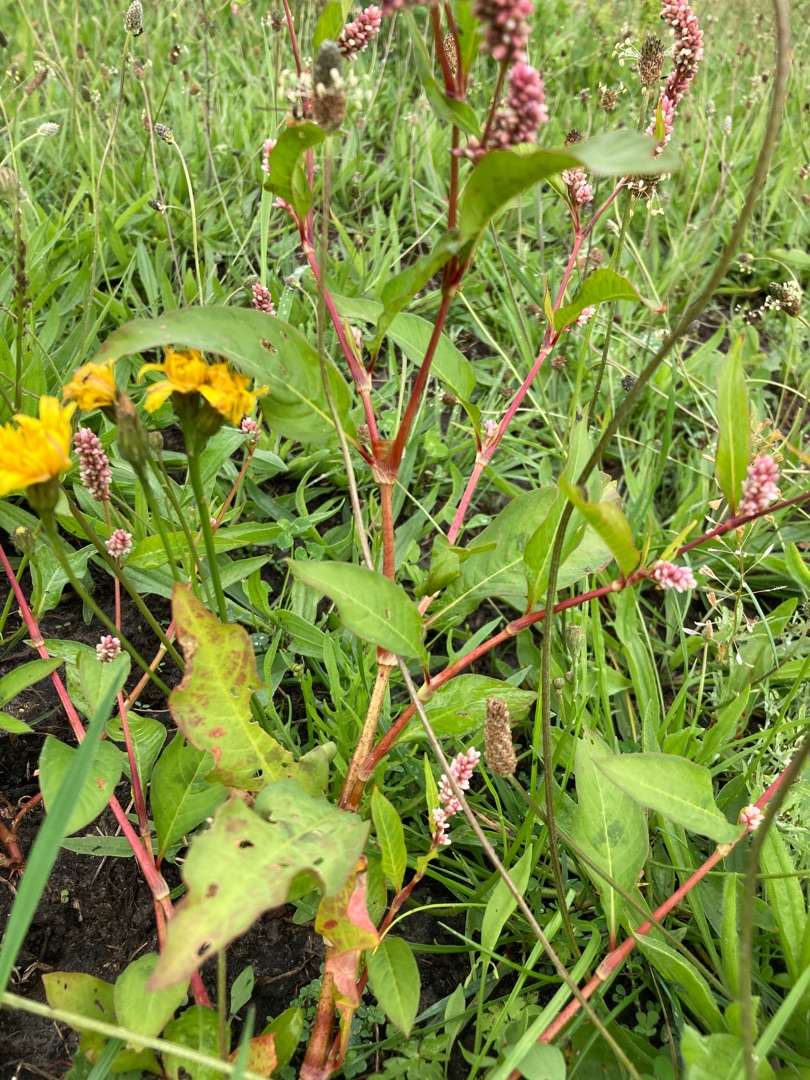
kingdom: Plantae
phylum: Tracheophyta
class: Magnoliopsida
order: Caryophyllales
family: Polygonaceae
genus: Persicaria
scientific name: Persicaria maculosa
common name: Fersken-pileurt
